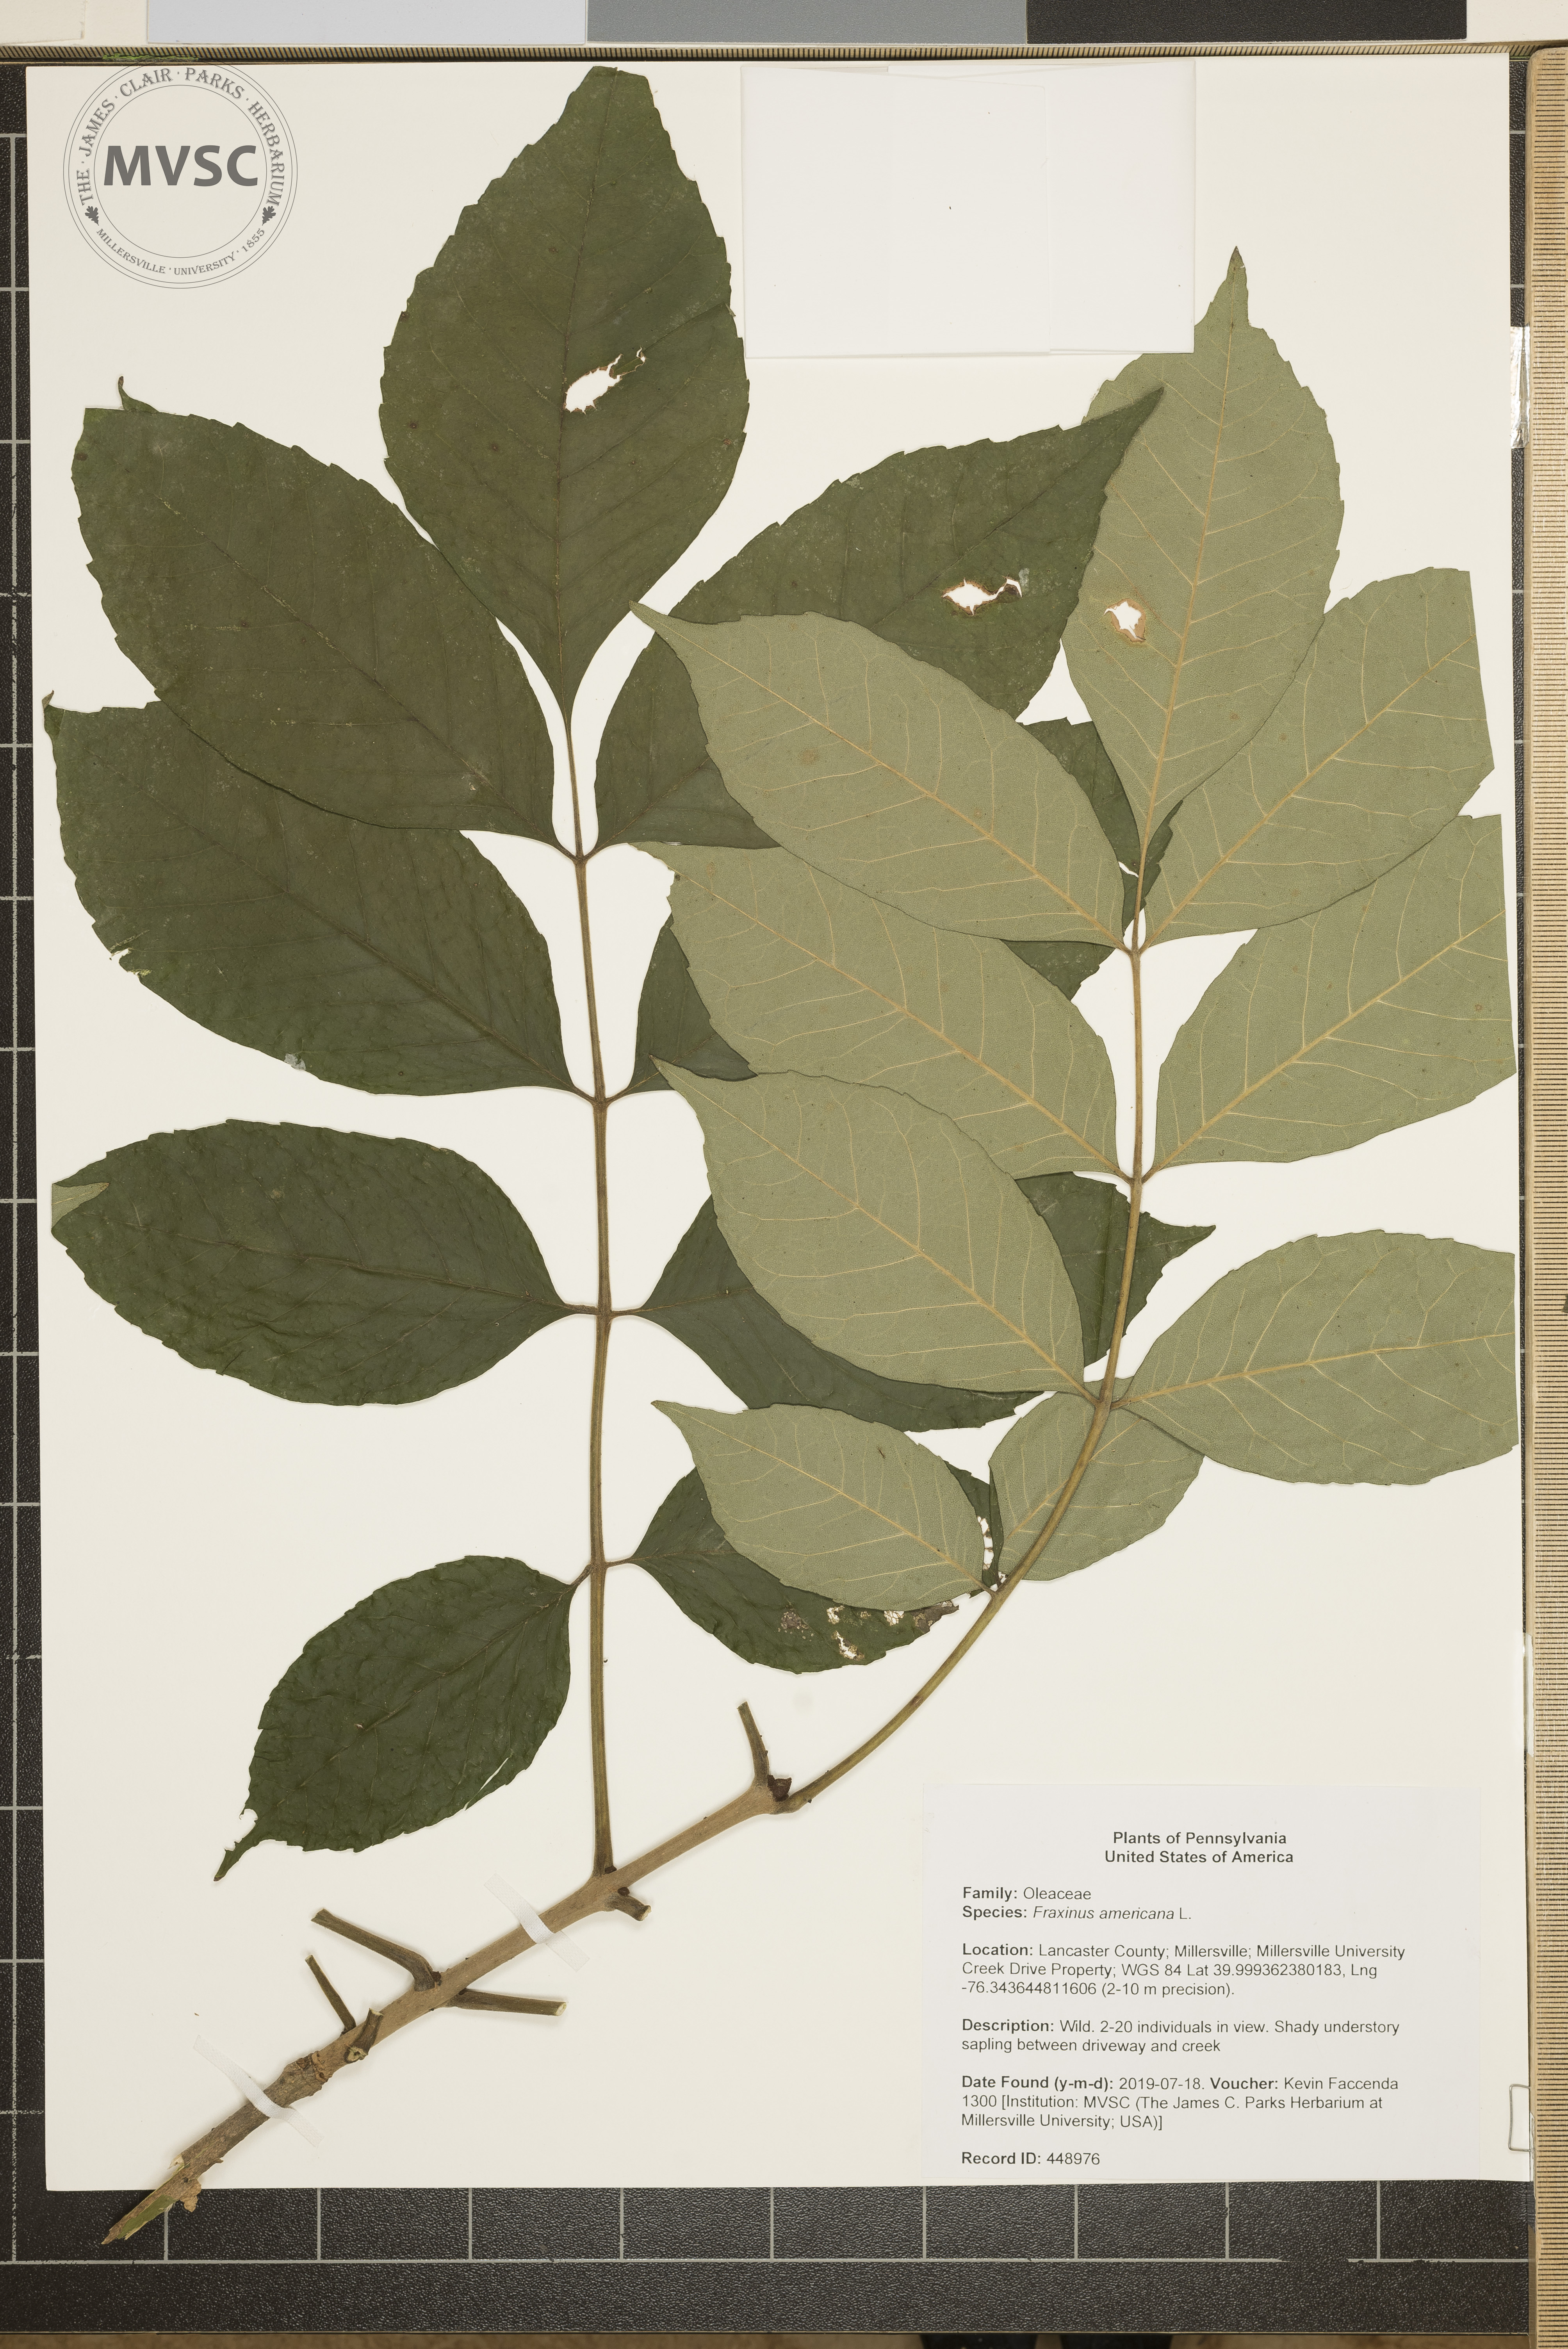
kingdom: Plantae
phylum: Tracheophyta
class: Magnoliopsida
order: Lamiales
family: Oleaceae
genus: Fraxinus
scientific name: Fraxinus americana
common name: White ash
